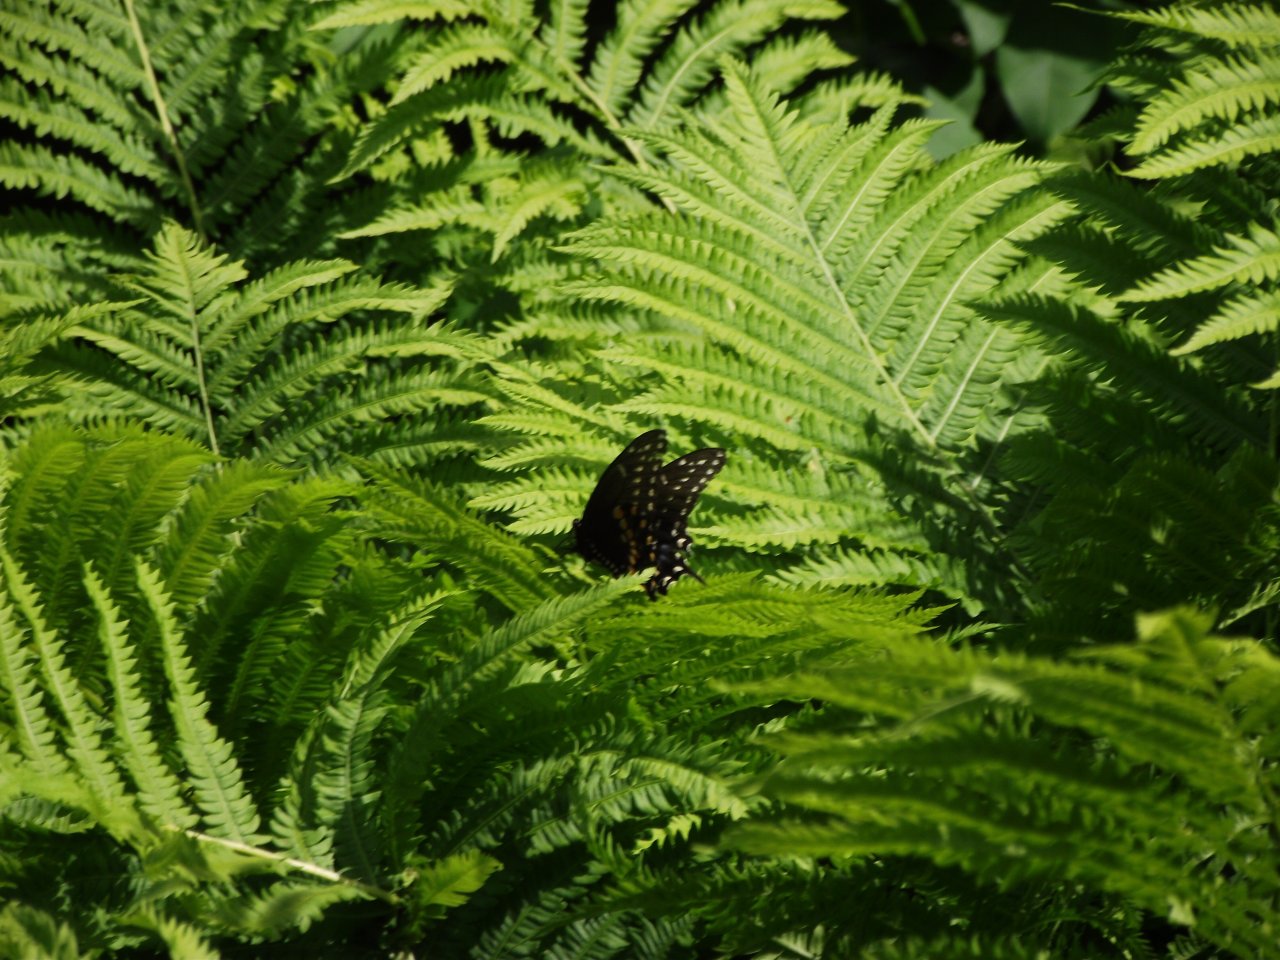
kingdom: Animalia
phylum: Arthropoda
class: Insecta
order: Lepidoptera
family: Papilionidae
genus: Papilio
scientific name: Papilio polyxenes
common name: Black Swallowtail
